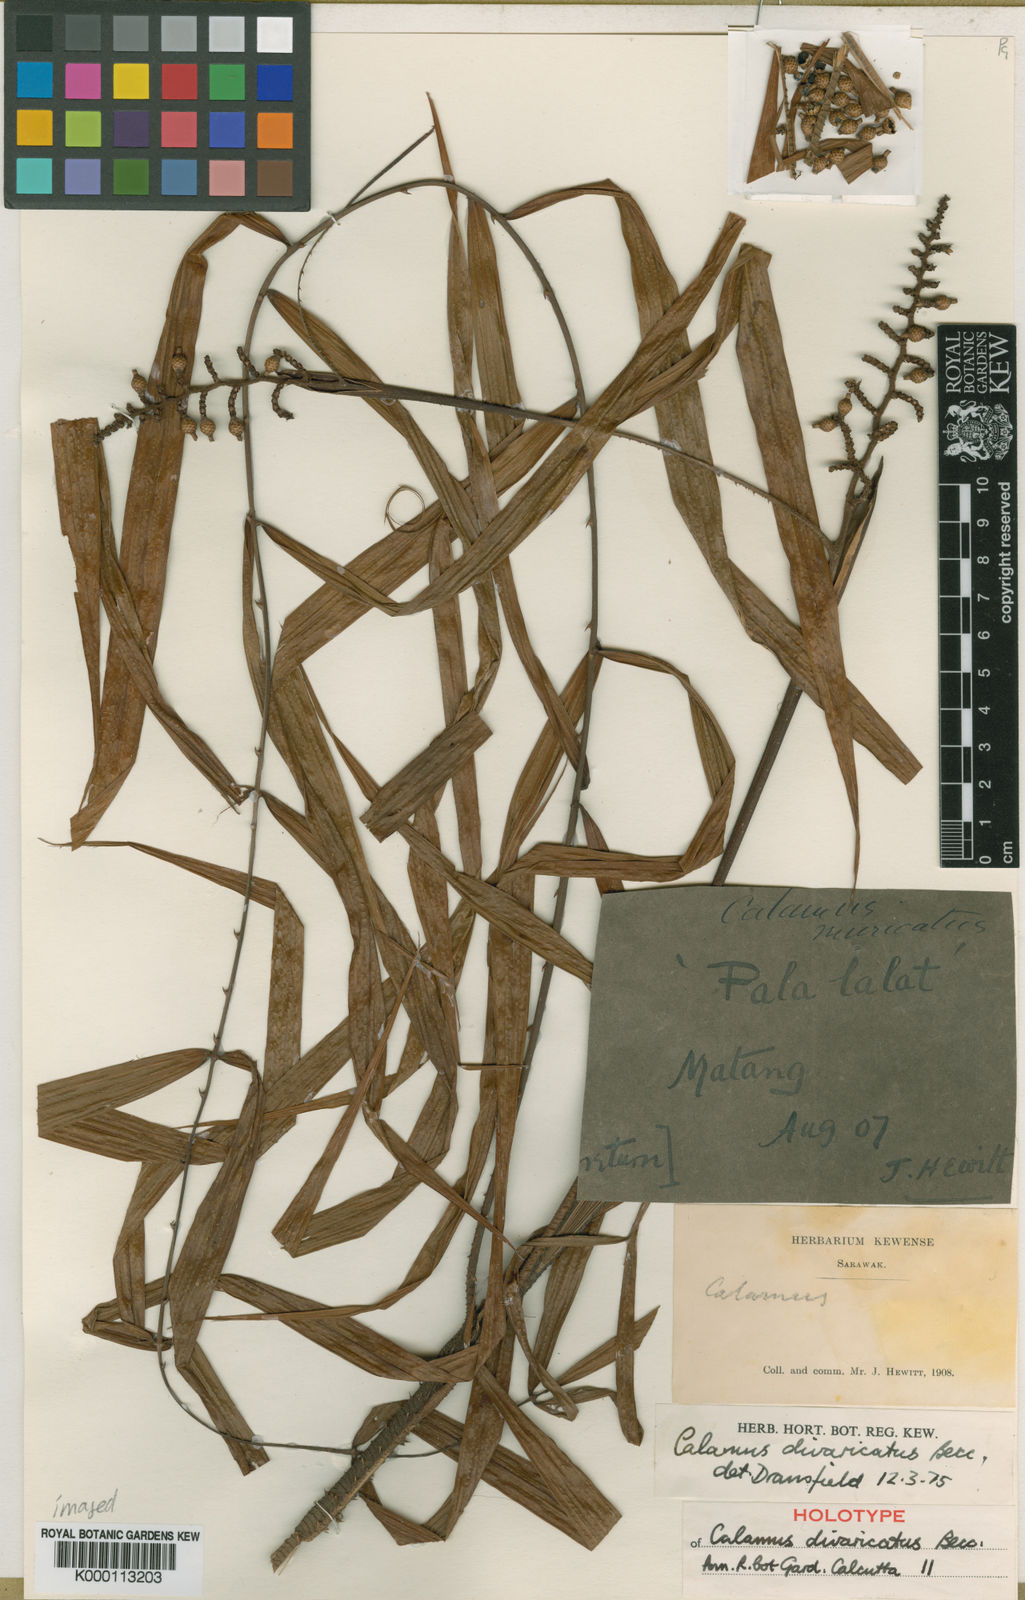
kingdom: Plantae
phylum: Tracheophyta
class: Liliopsida
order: Arecales
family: Arecaceae
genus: Calamus
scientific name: Calamus divaricatus
